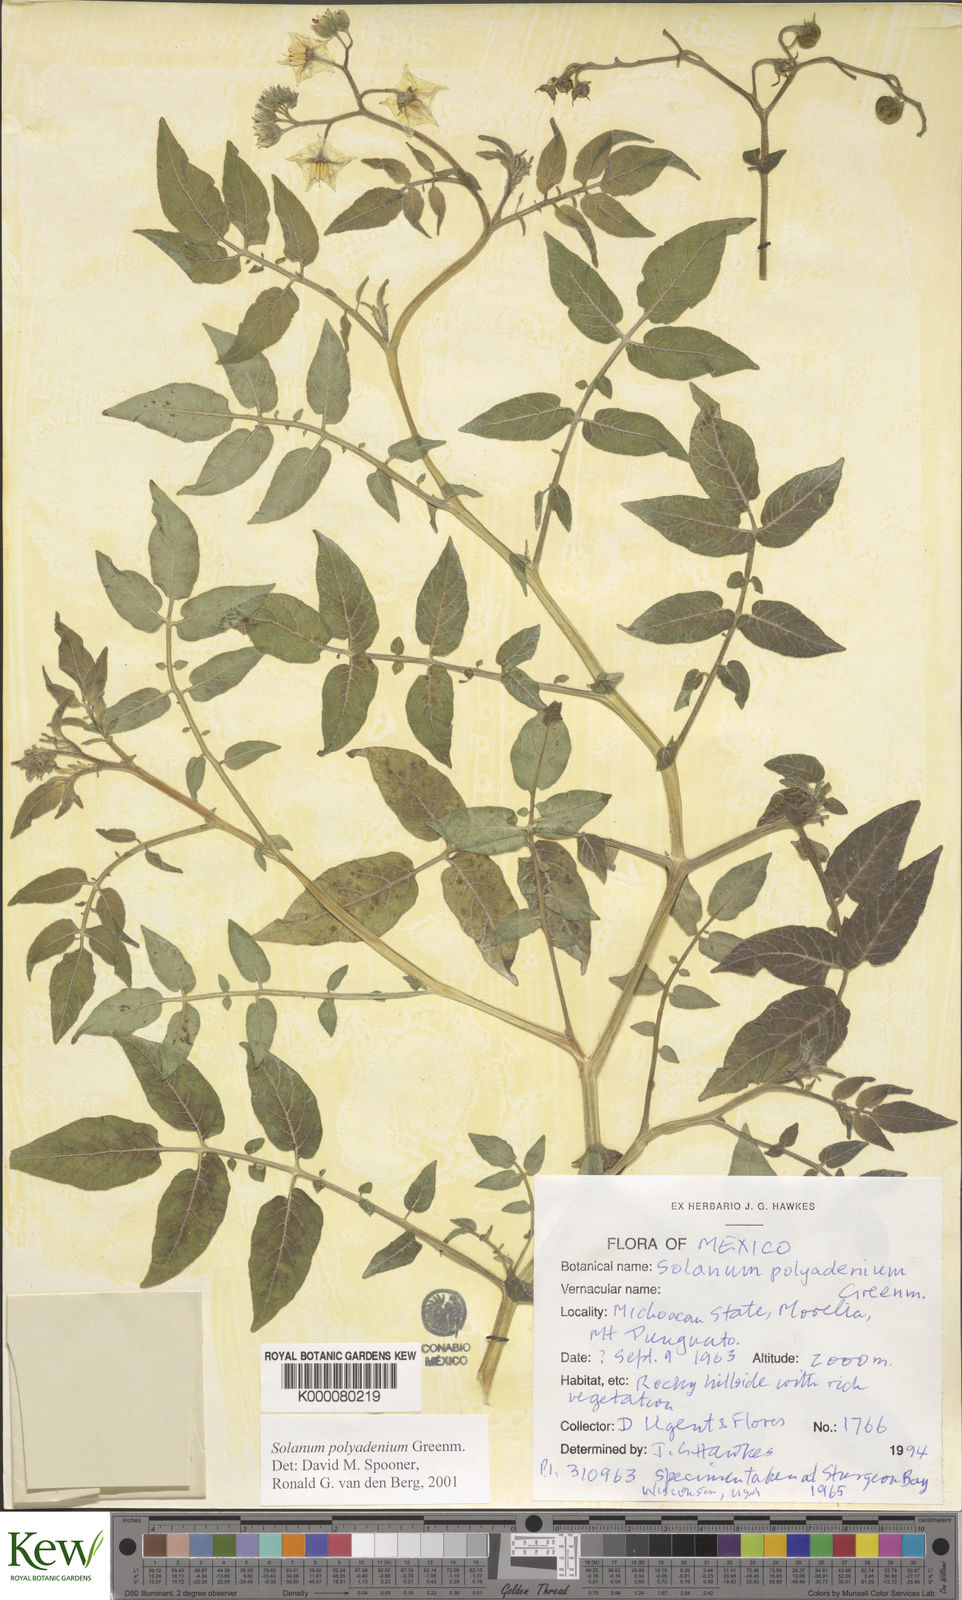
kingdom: Plantae
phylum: Tracheophyta
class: Magnoliopsida
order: Solanales
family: Solanaceae
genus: Solanum
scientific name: Solanum polyadenium
